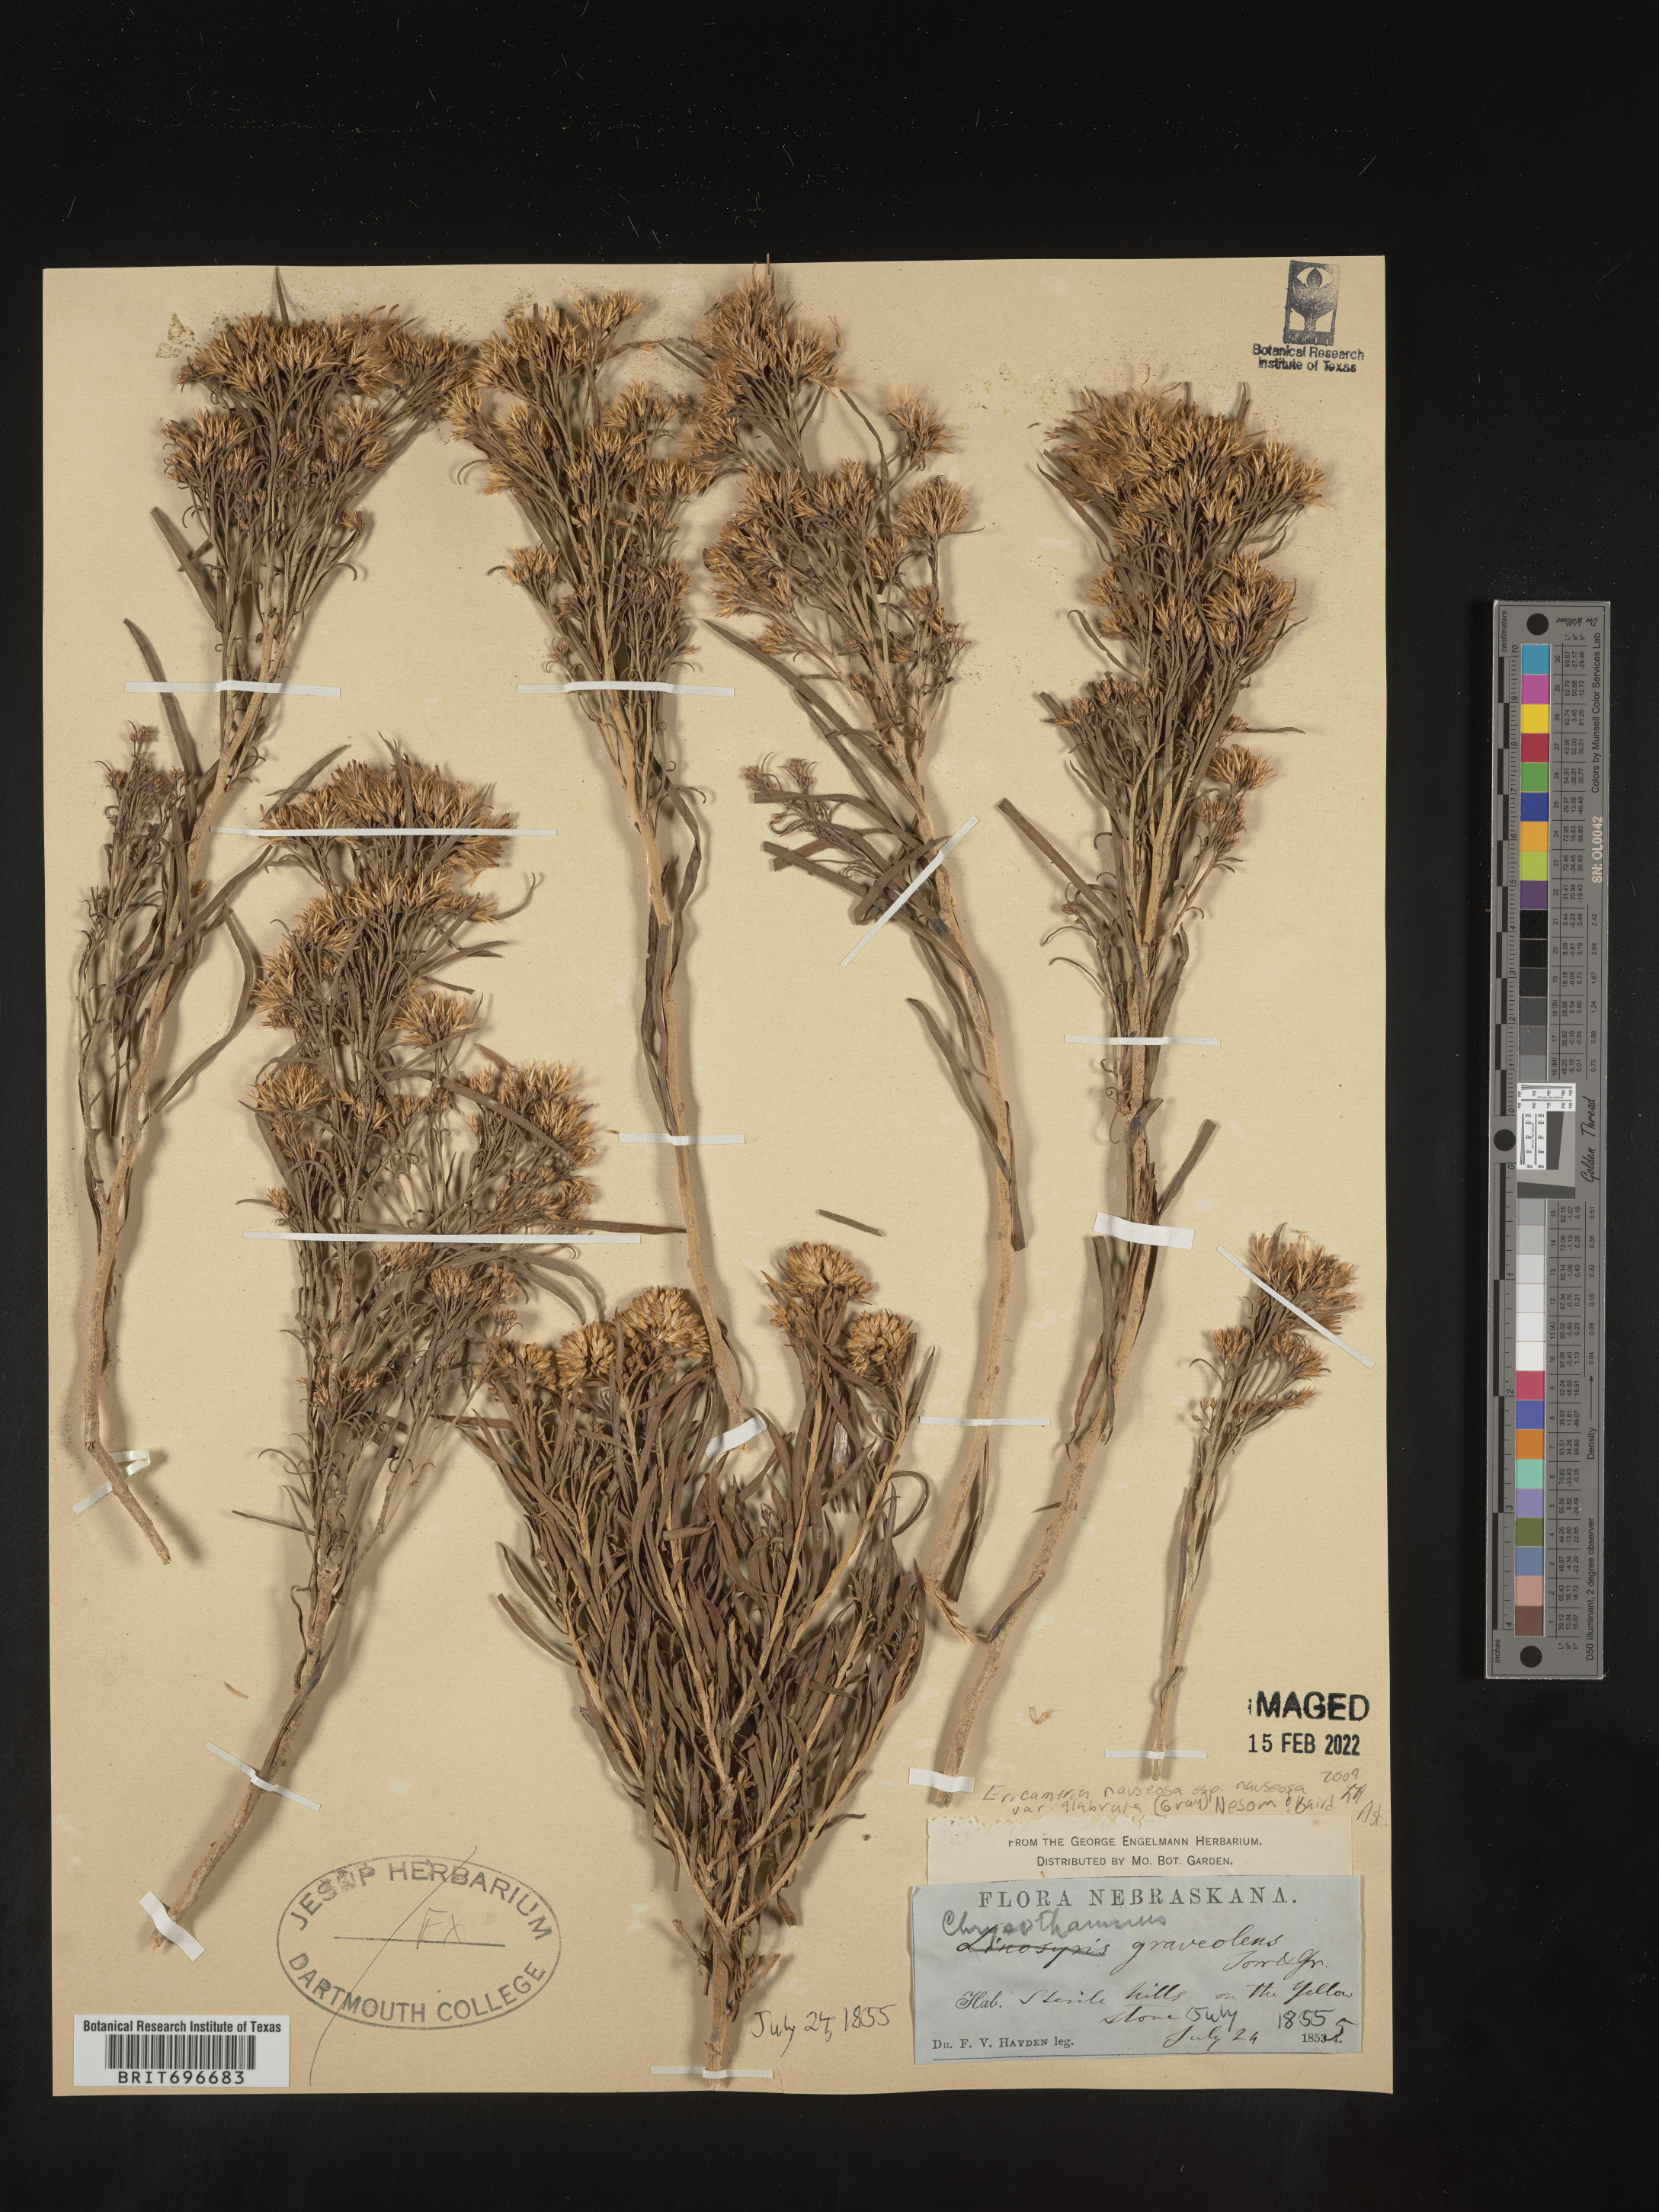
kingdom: Plantae
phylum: Tracheophyta
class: Magnoliopsida
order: Asterales
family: Asteraceae
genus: Ericameria
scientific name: Ericameria nauseosa
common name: Rubber rabbitbrush
